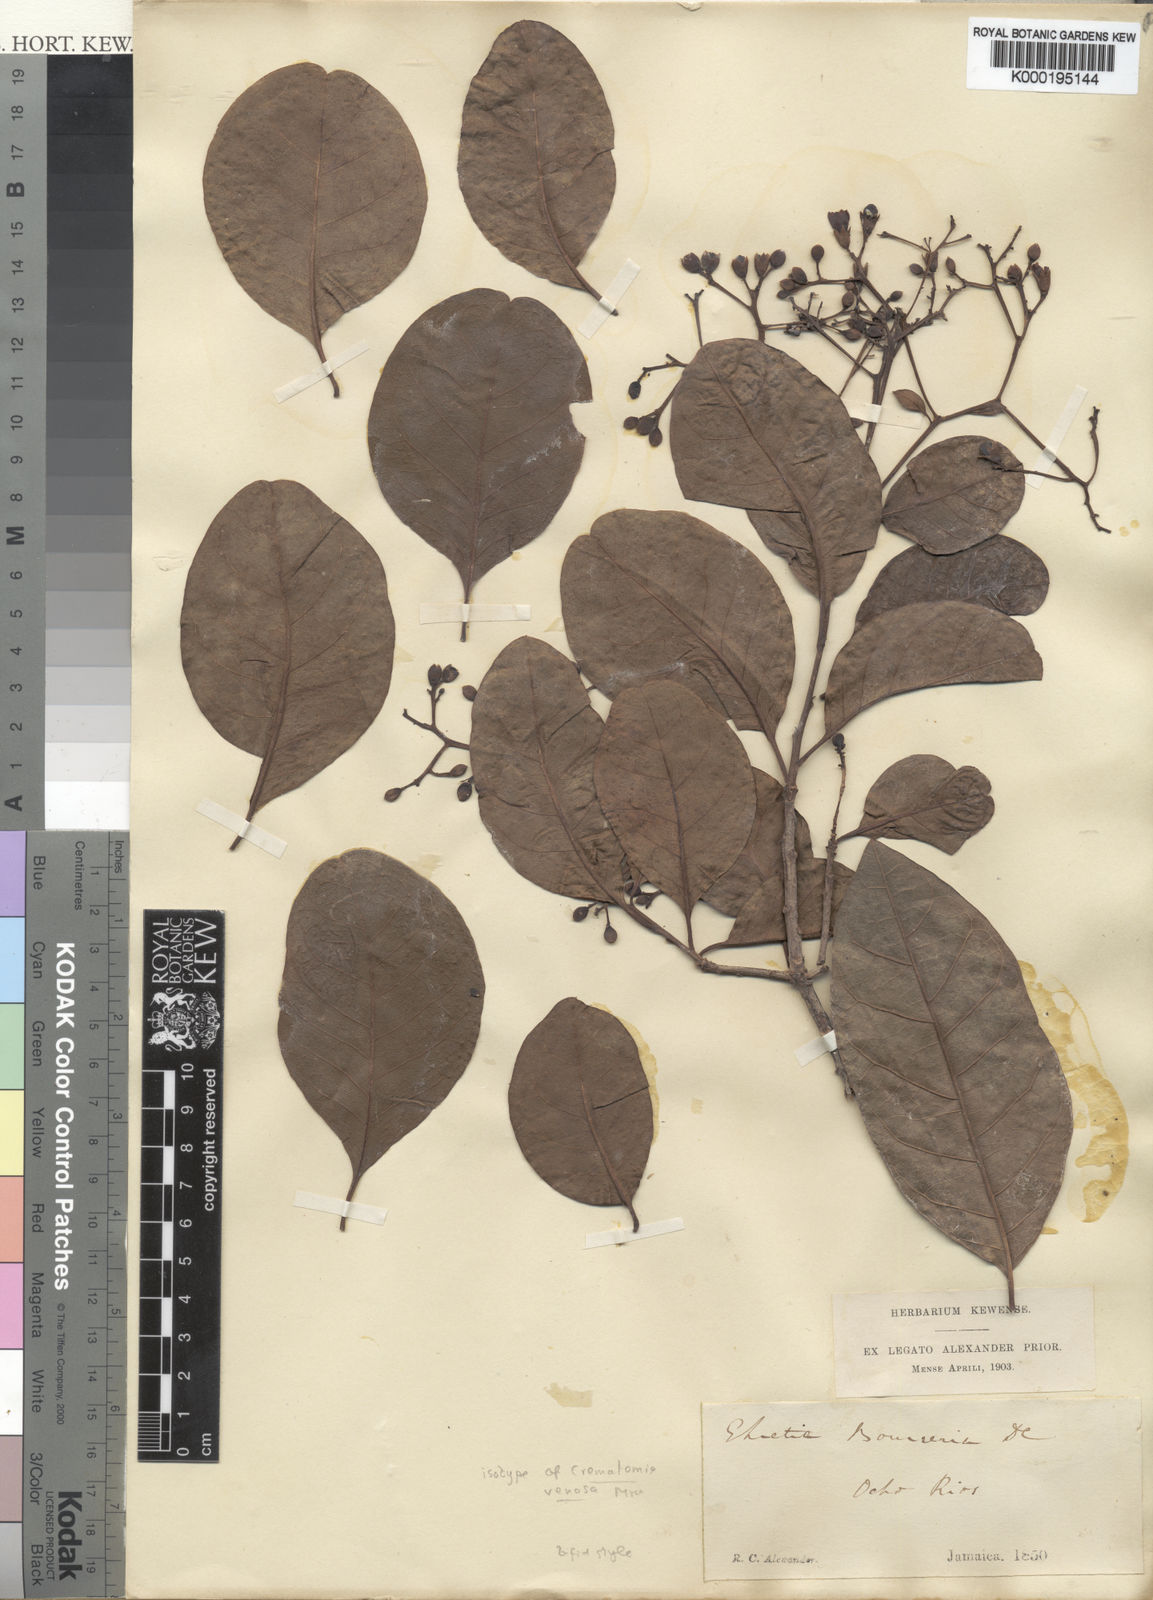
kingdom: Plantae
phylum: Tracheophyta
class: Magnoliopsida
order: Boraginales
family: Ehretiaceae
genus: Bourreria
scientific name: Bourreria velutina
